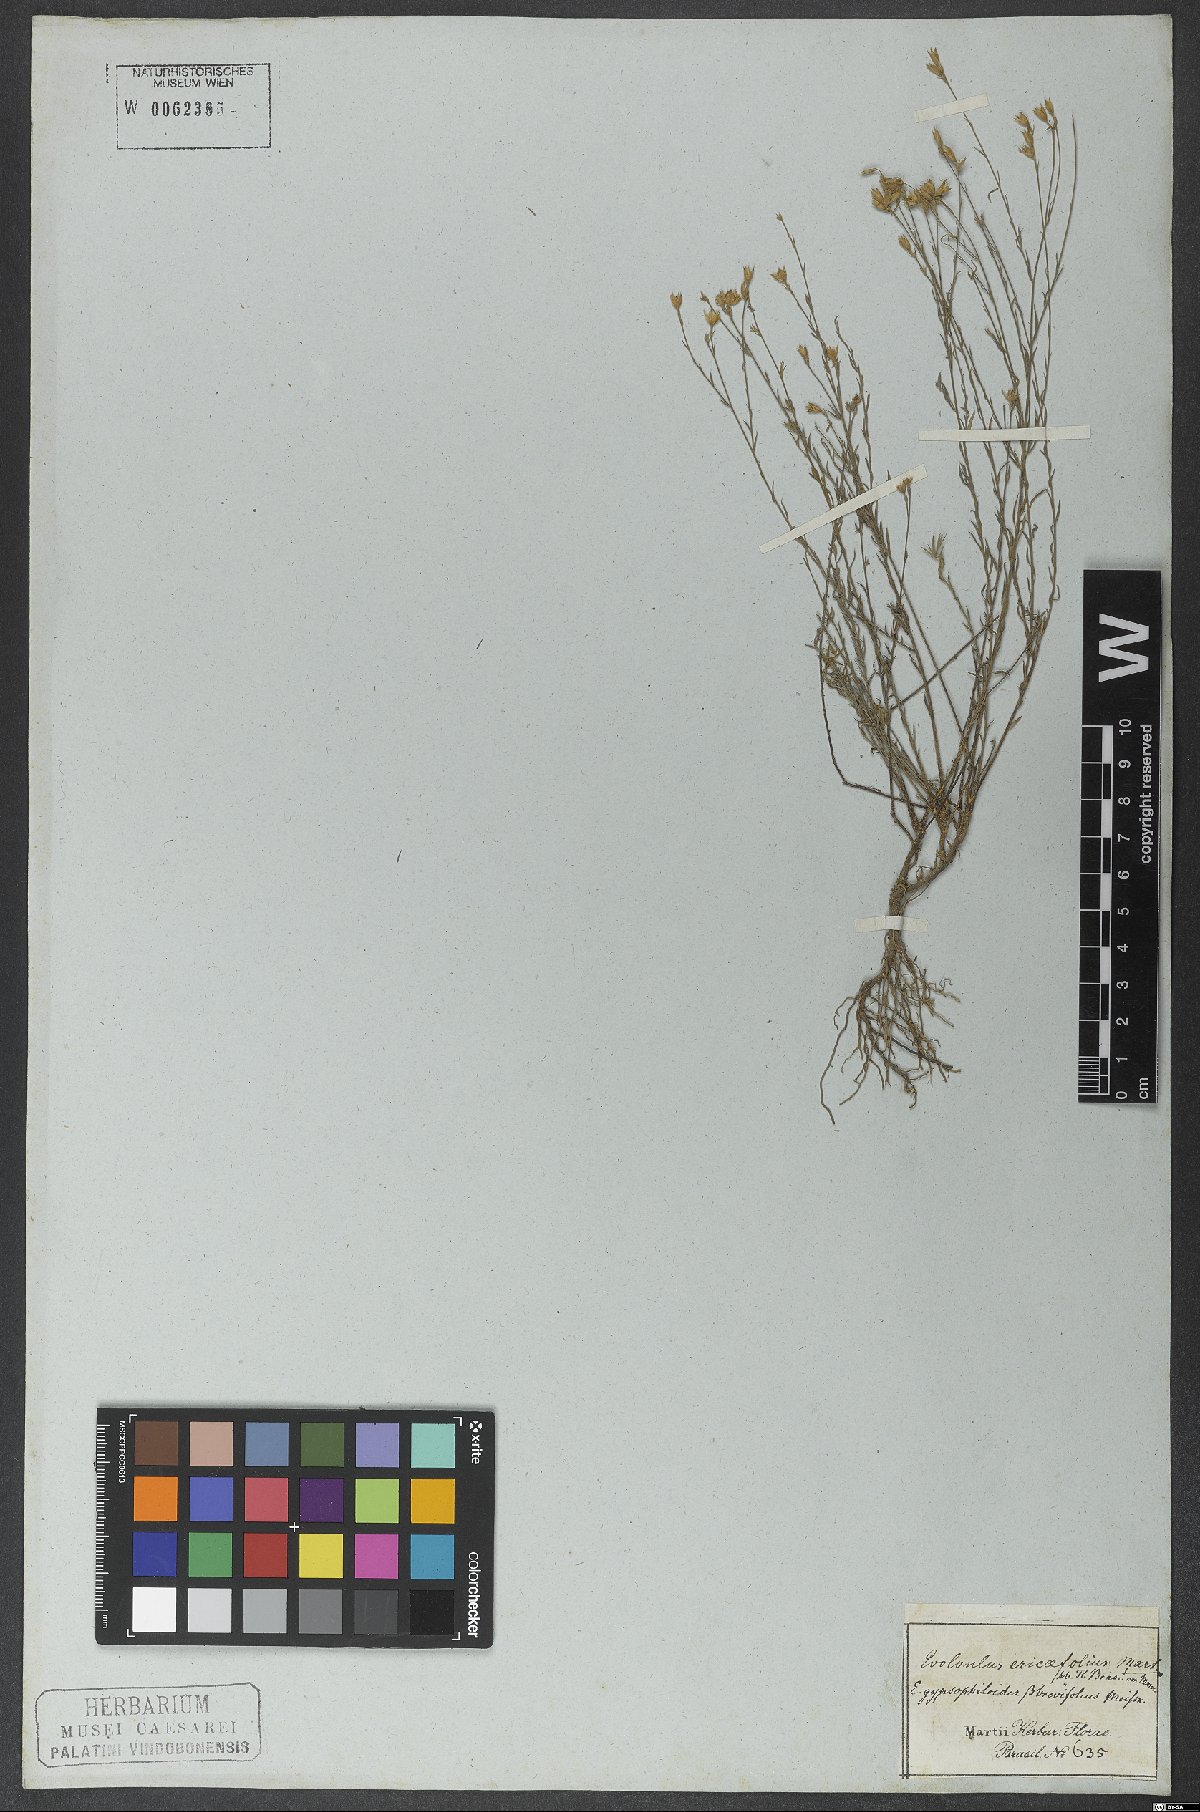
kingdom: Plantae
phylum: Tracheophyta
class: Magnoliopsida
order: Solanales
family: Convolvulaceae
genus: Evolvulus
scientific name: Evolvulus gypsophiloides
